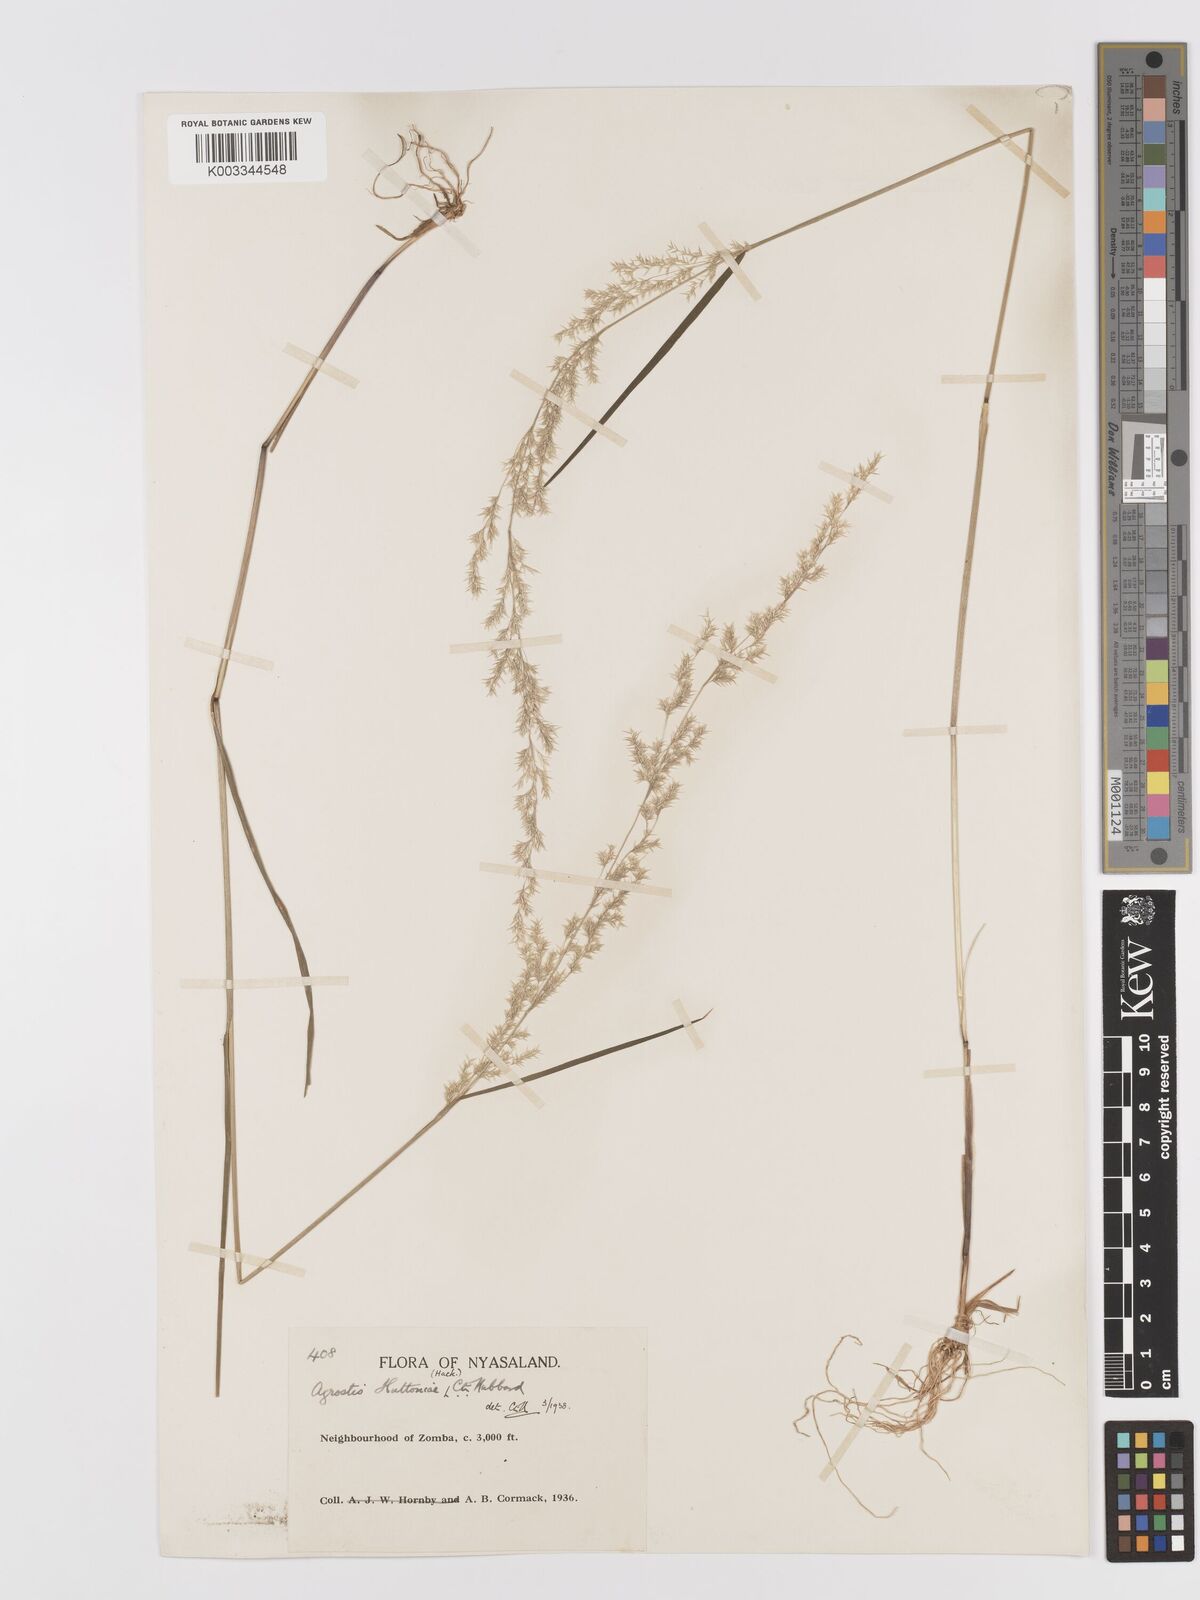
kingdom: Plantae
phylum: Tracheophyta
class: Liliopsida
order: Poales
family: Poaceae
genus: Lachnagrostis
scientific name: Lachnagrostis lachnantha
